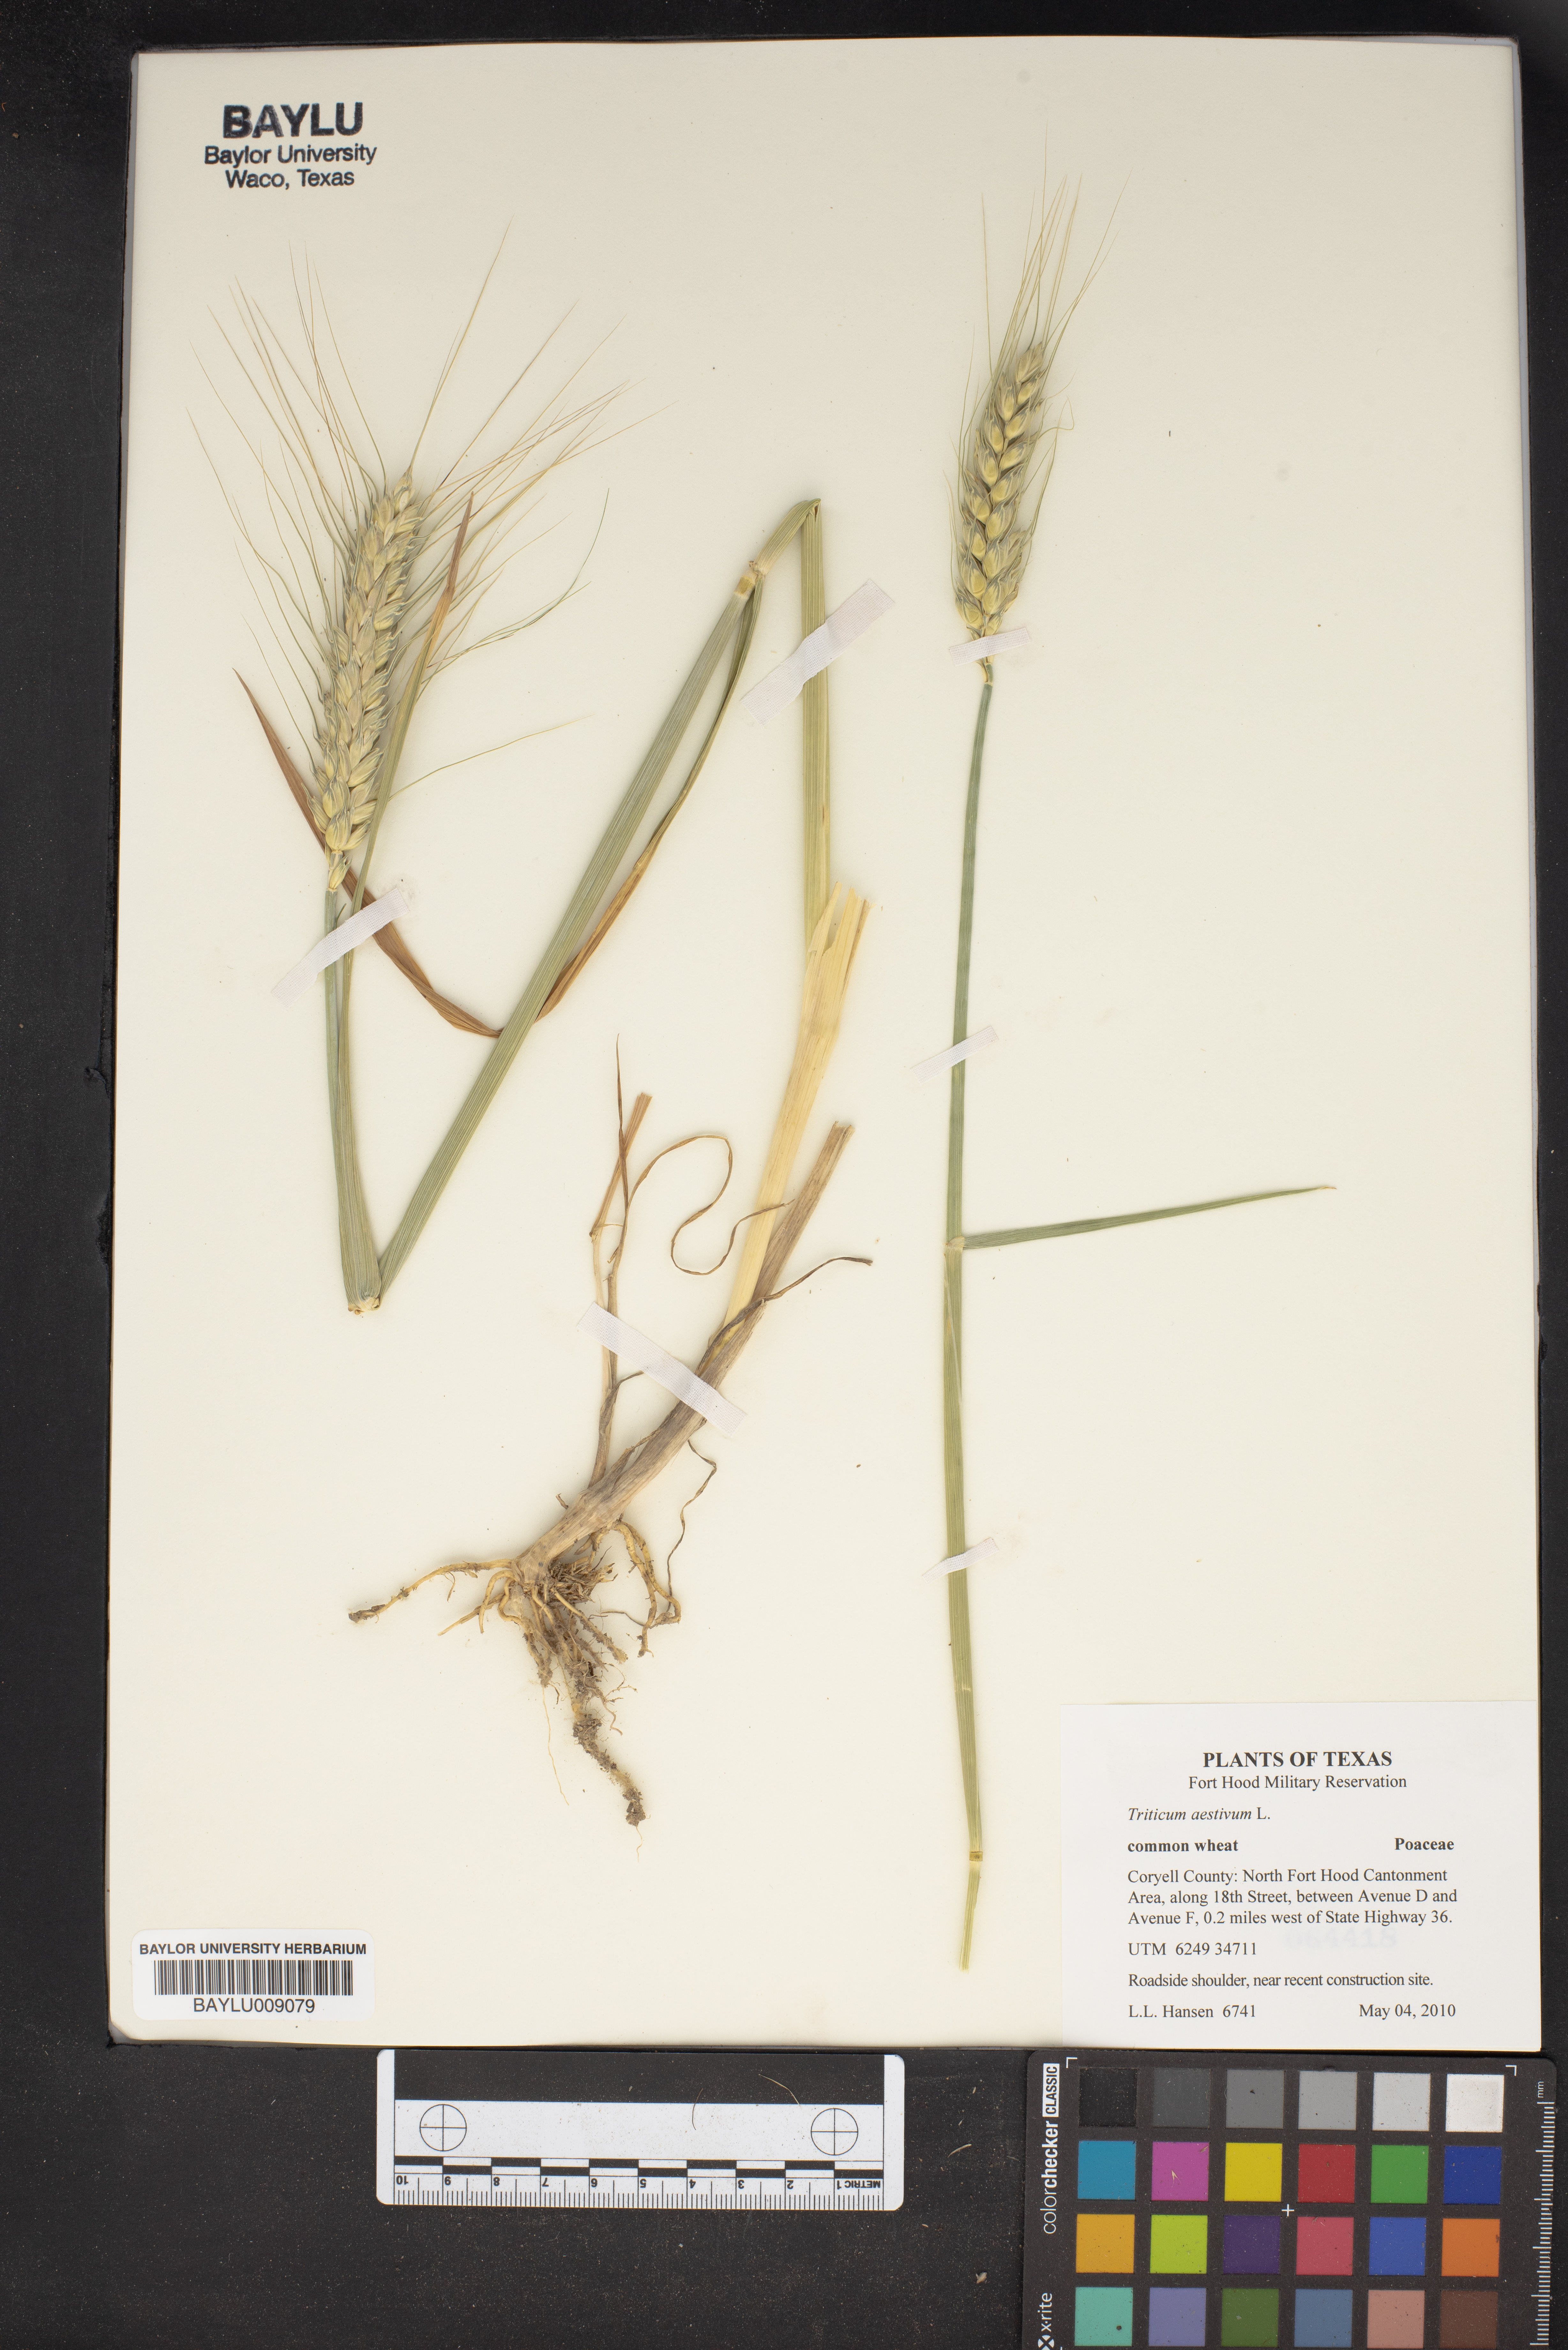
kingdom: Plantae
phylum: Tracheophyta
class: Liliopsida
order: Poales
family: Poaceae
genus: Triticum
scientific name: Triticum aestivum
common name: Common wheat
